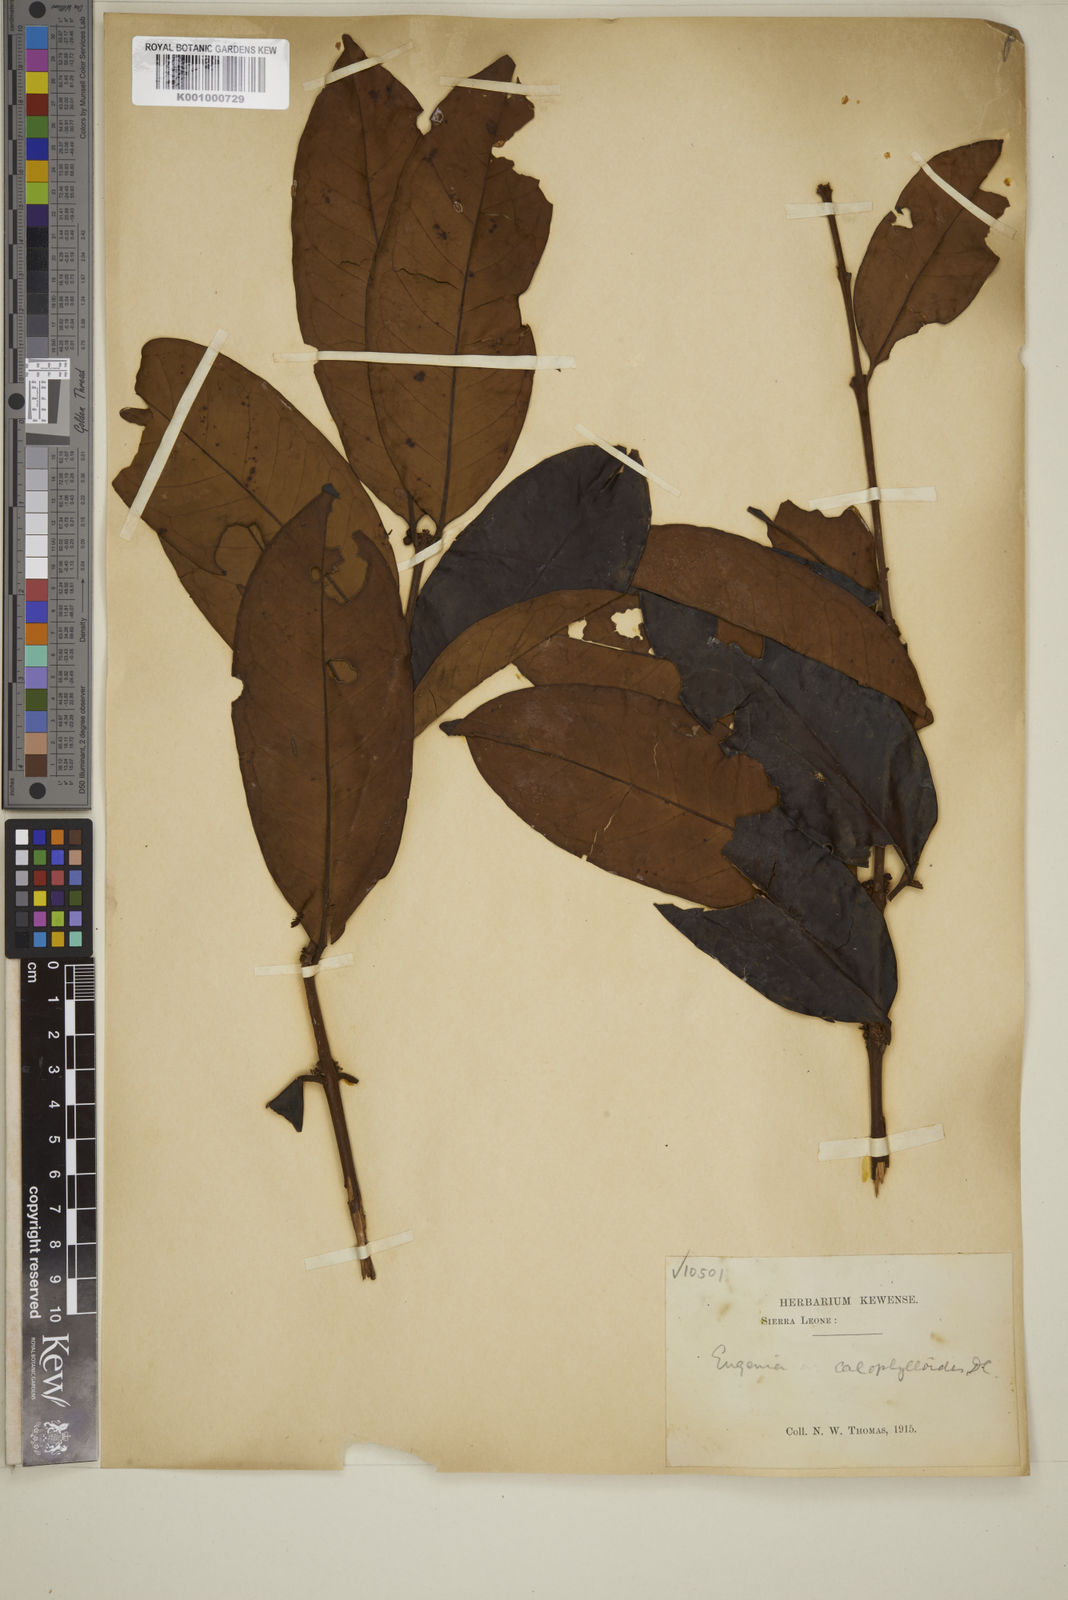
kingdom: Plantae
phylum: Tracheophyta
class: Magnoliopsida
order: Myrtales
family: Myrtaceae
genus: Eugenia
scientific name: Eugenia calophylloides
